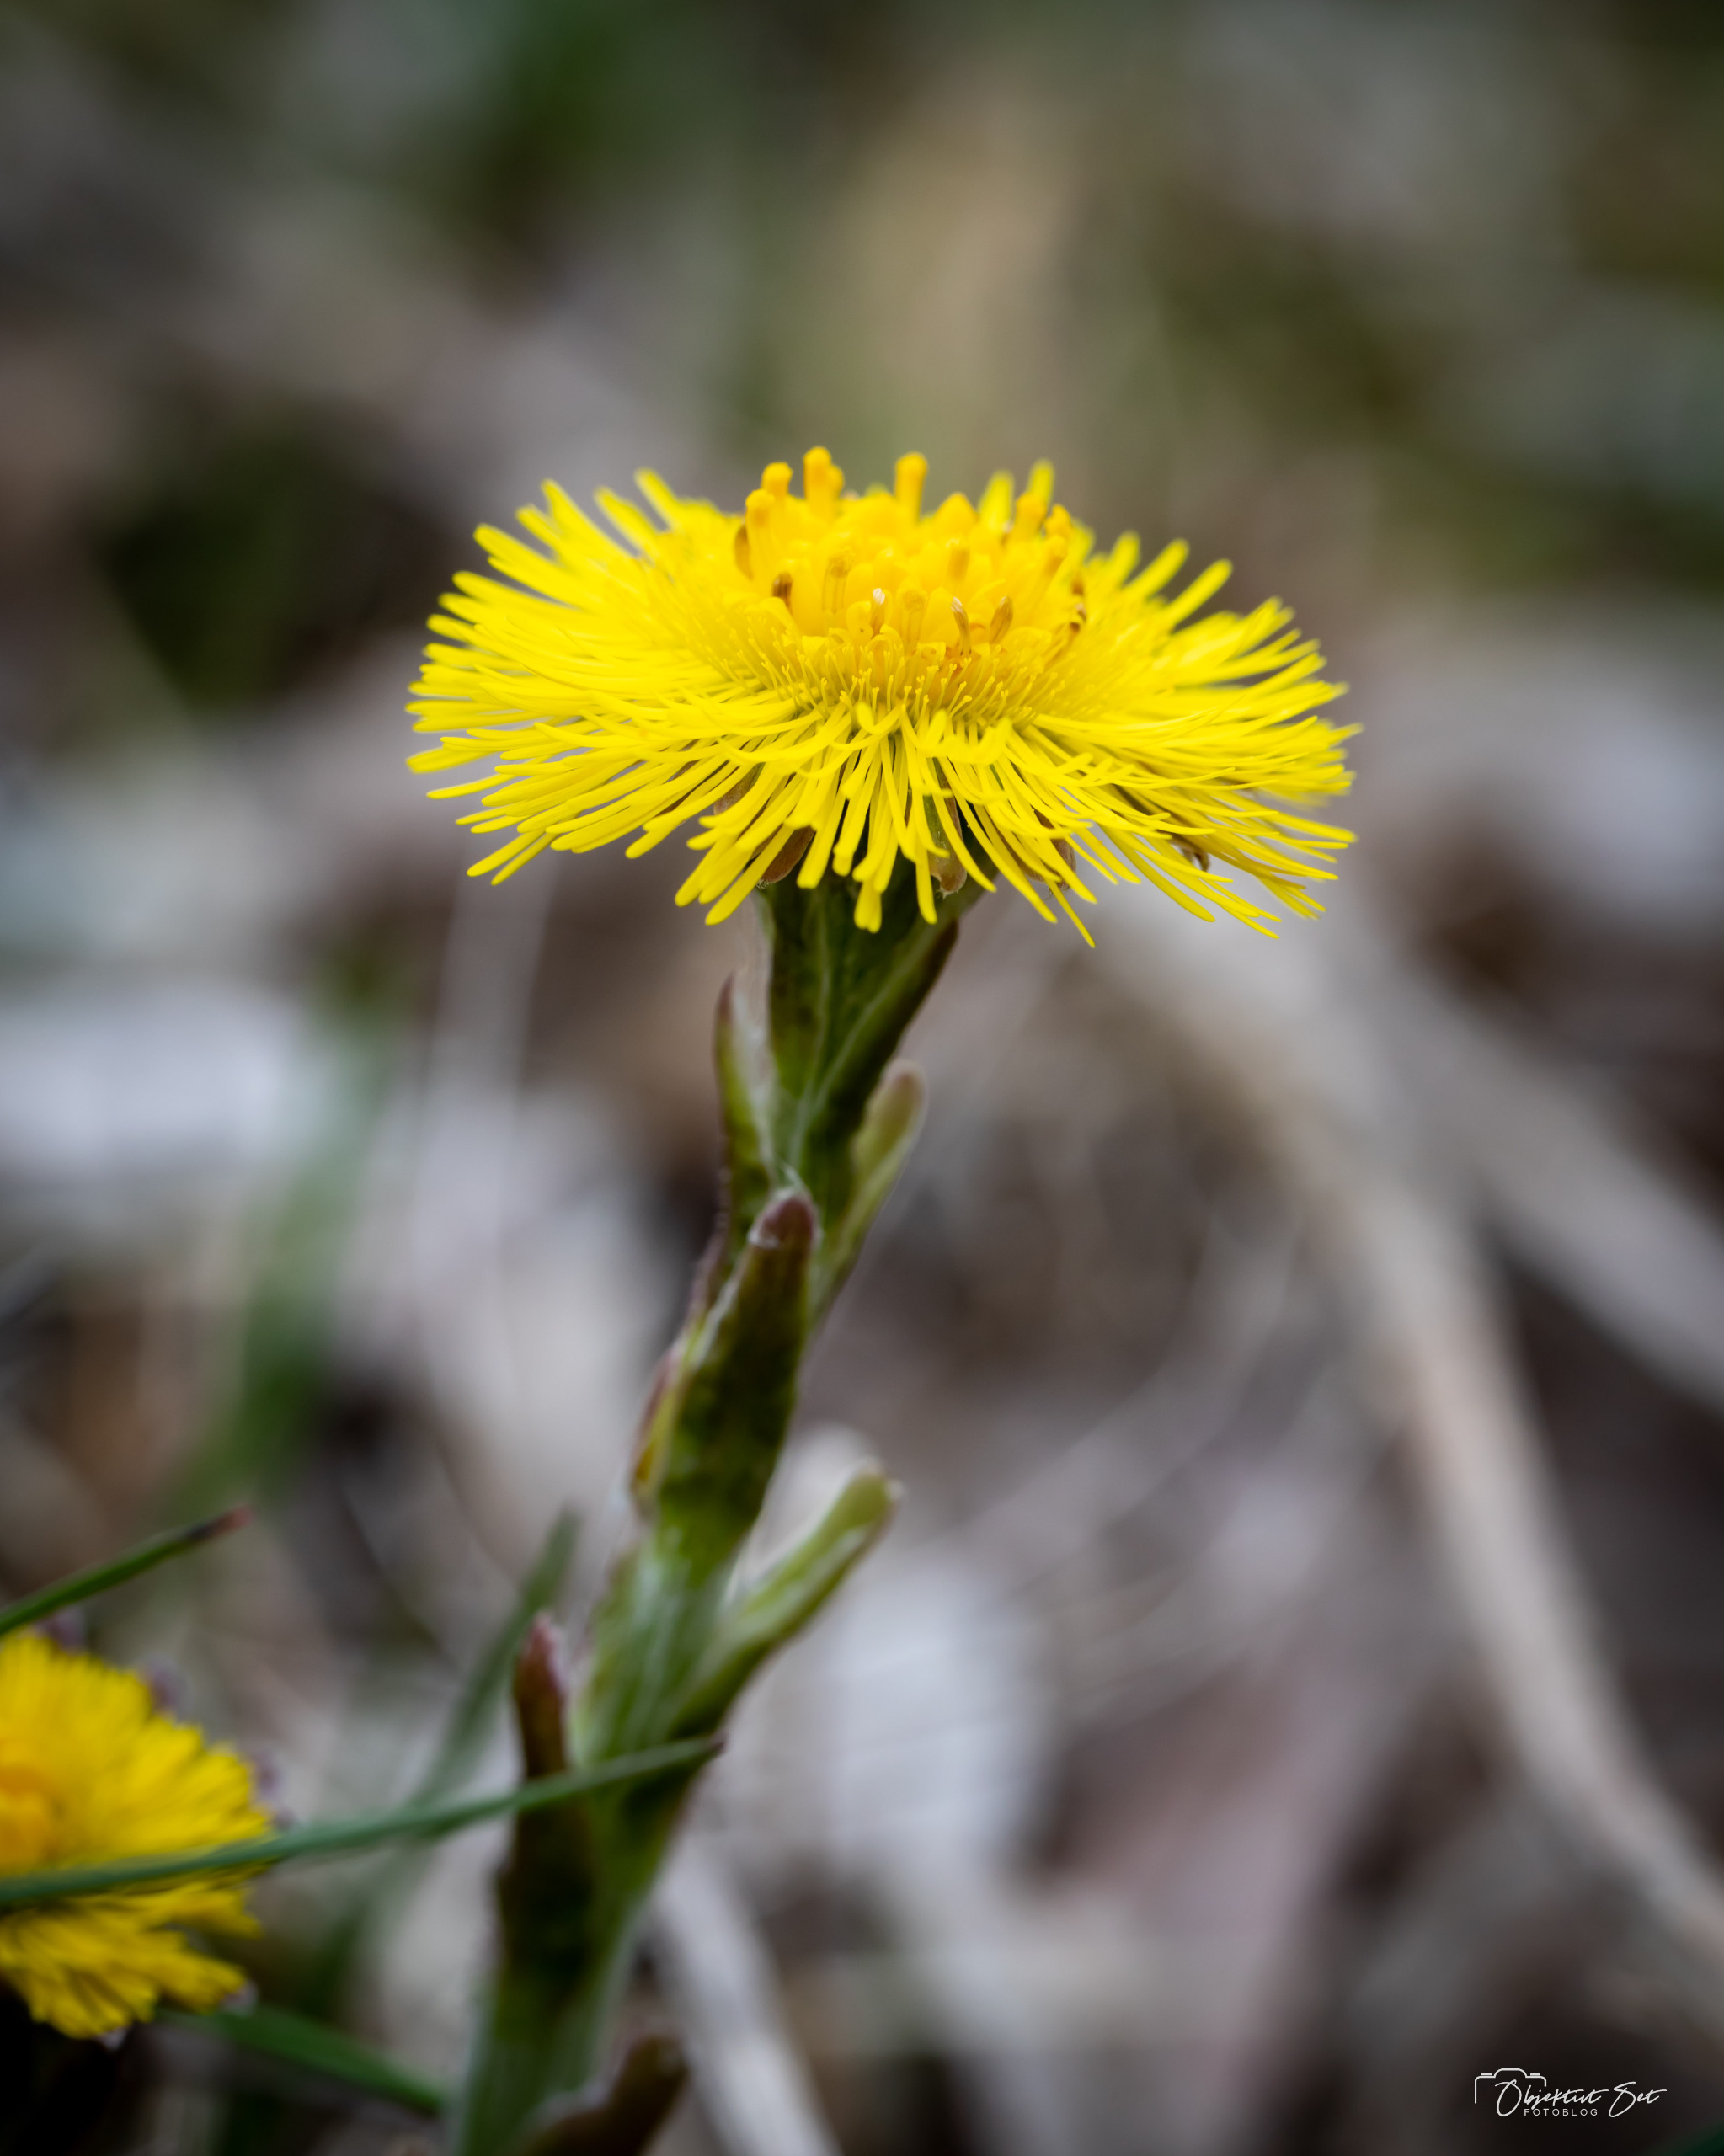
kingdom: Plantae
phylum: Tracheophyta
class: Magnoliopsida
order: Asterales
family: Asteraceae
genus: Tussilago
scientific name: Tussilago farfara
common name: Følfod
